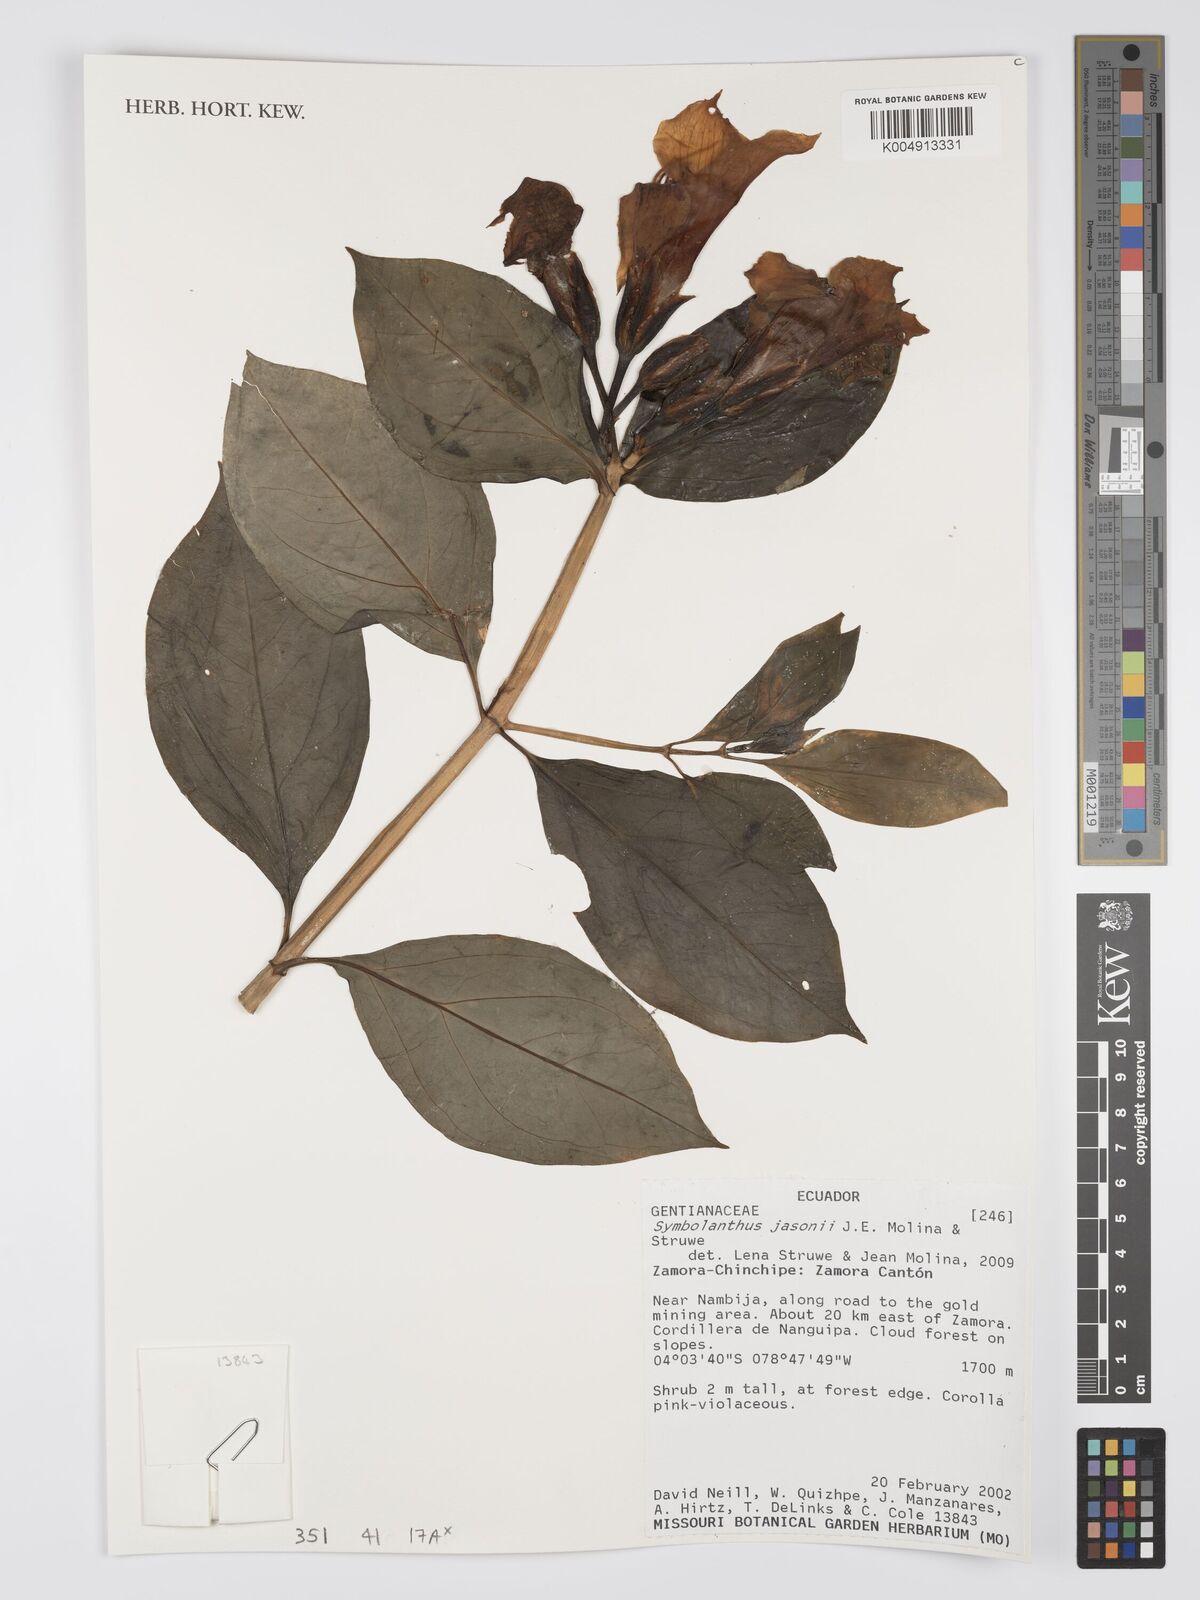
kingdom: Plantae
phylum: Tracheophyta
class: Magnoliopsida
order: Gentianales
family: Gentianaceae
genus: Symbolanthus
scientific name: Symbolanthus jasonii
